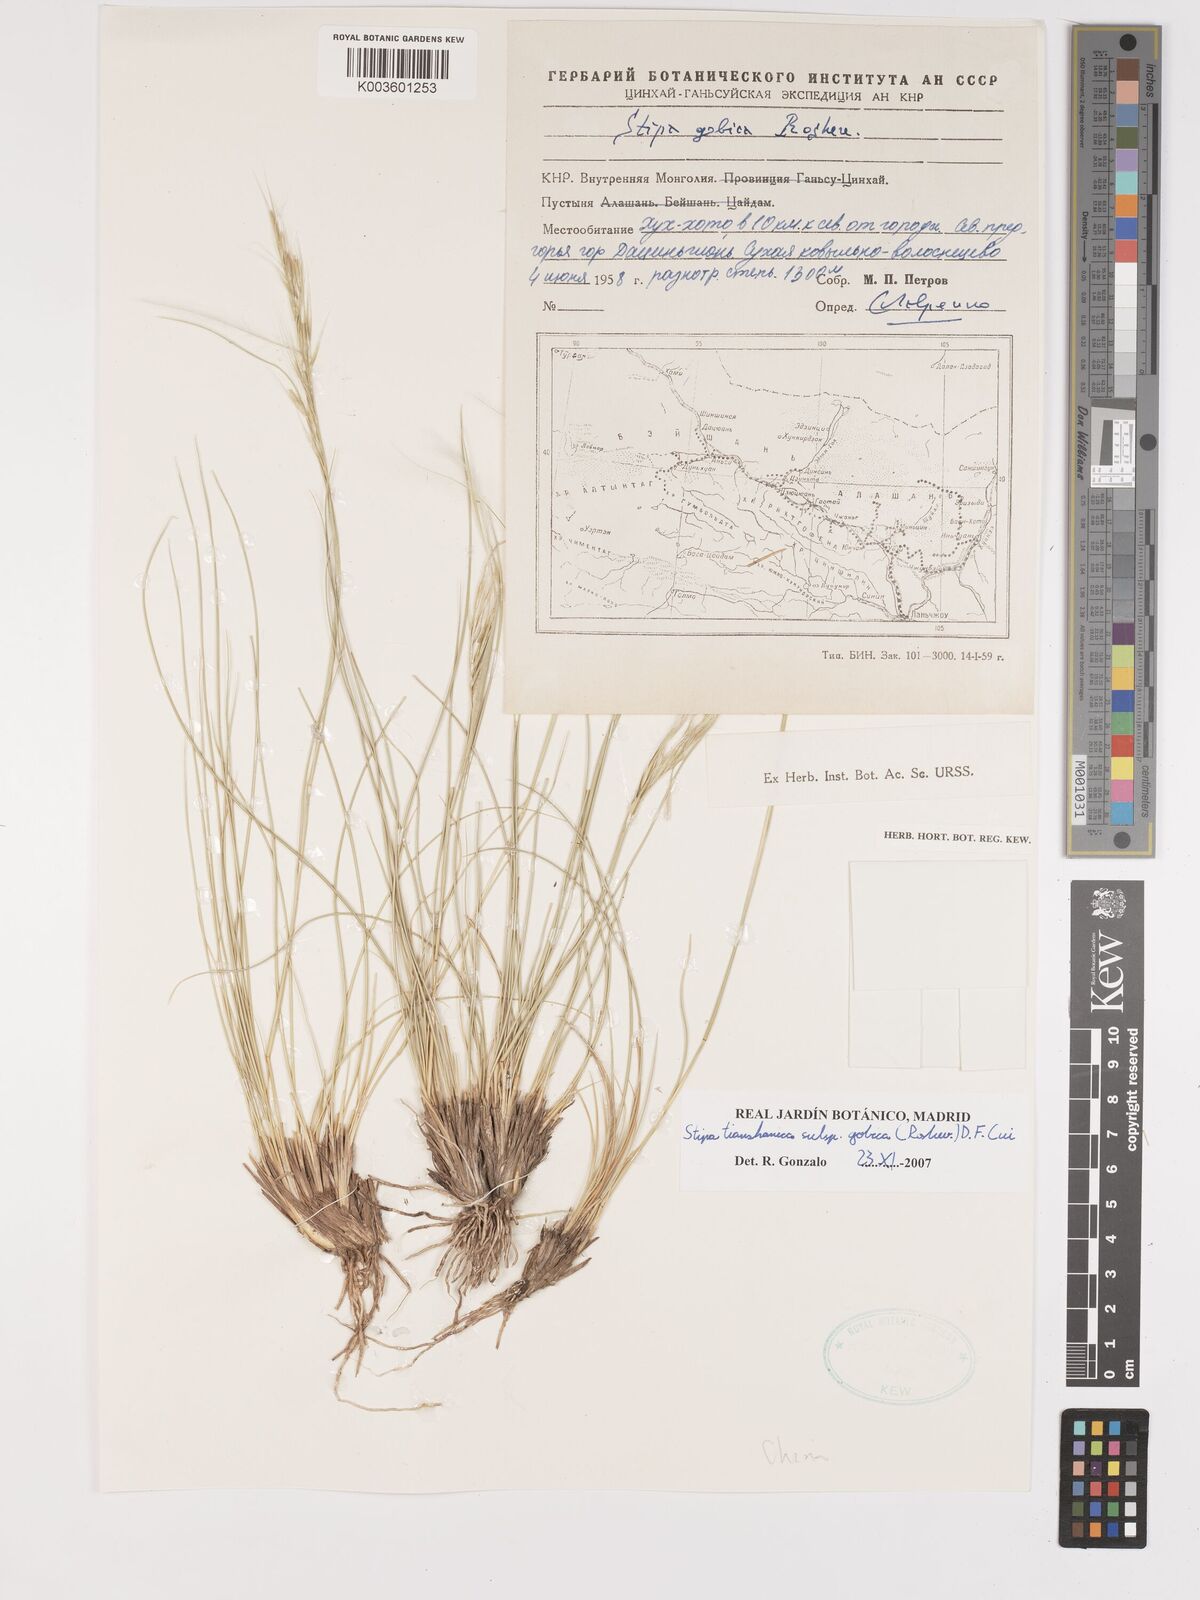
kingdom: Plantae
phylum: Tracheophyta
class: Liliopsida
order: Poales
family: Poaceae
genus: Stipa
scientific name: Stipa tianschanica
